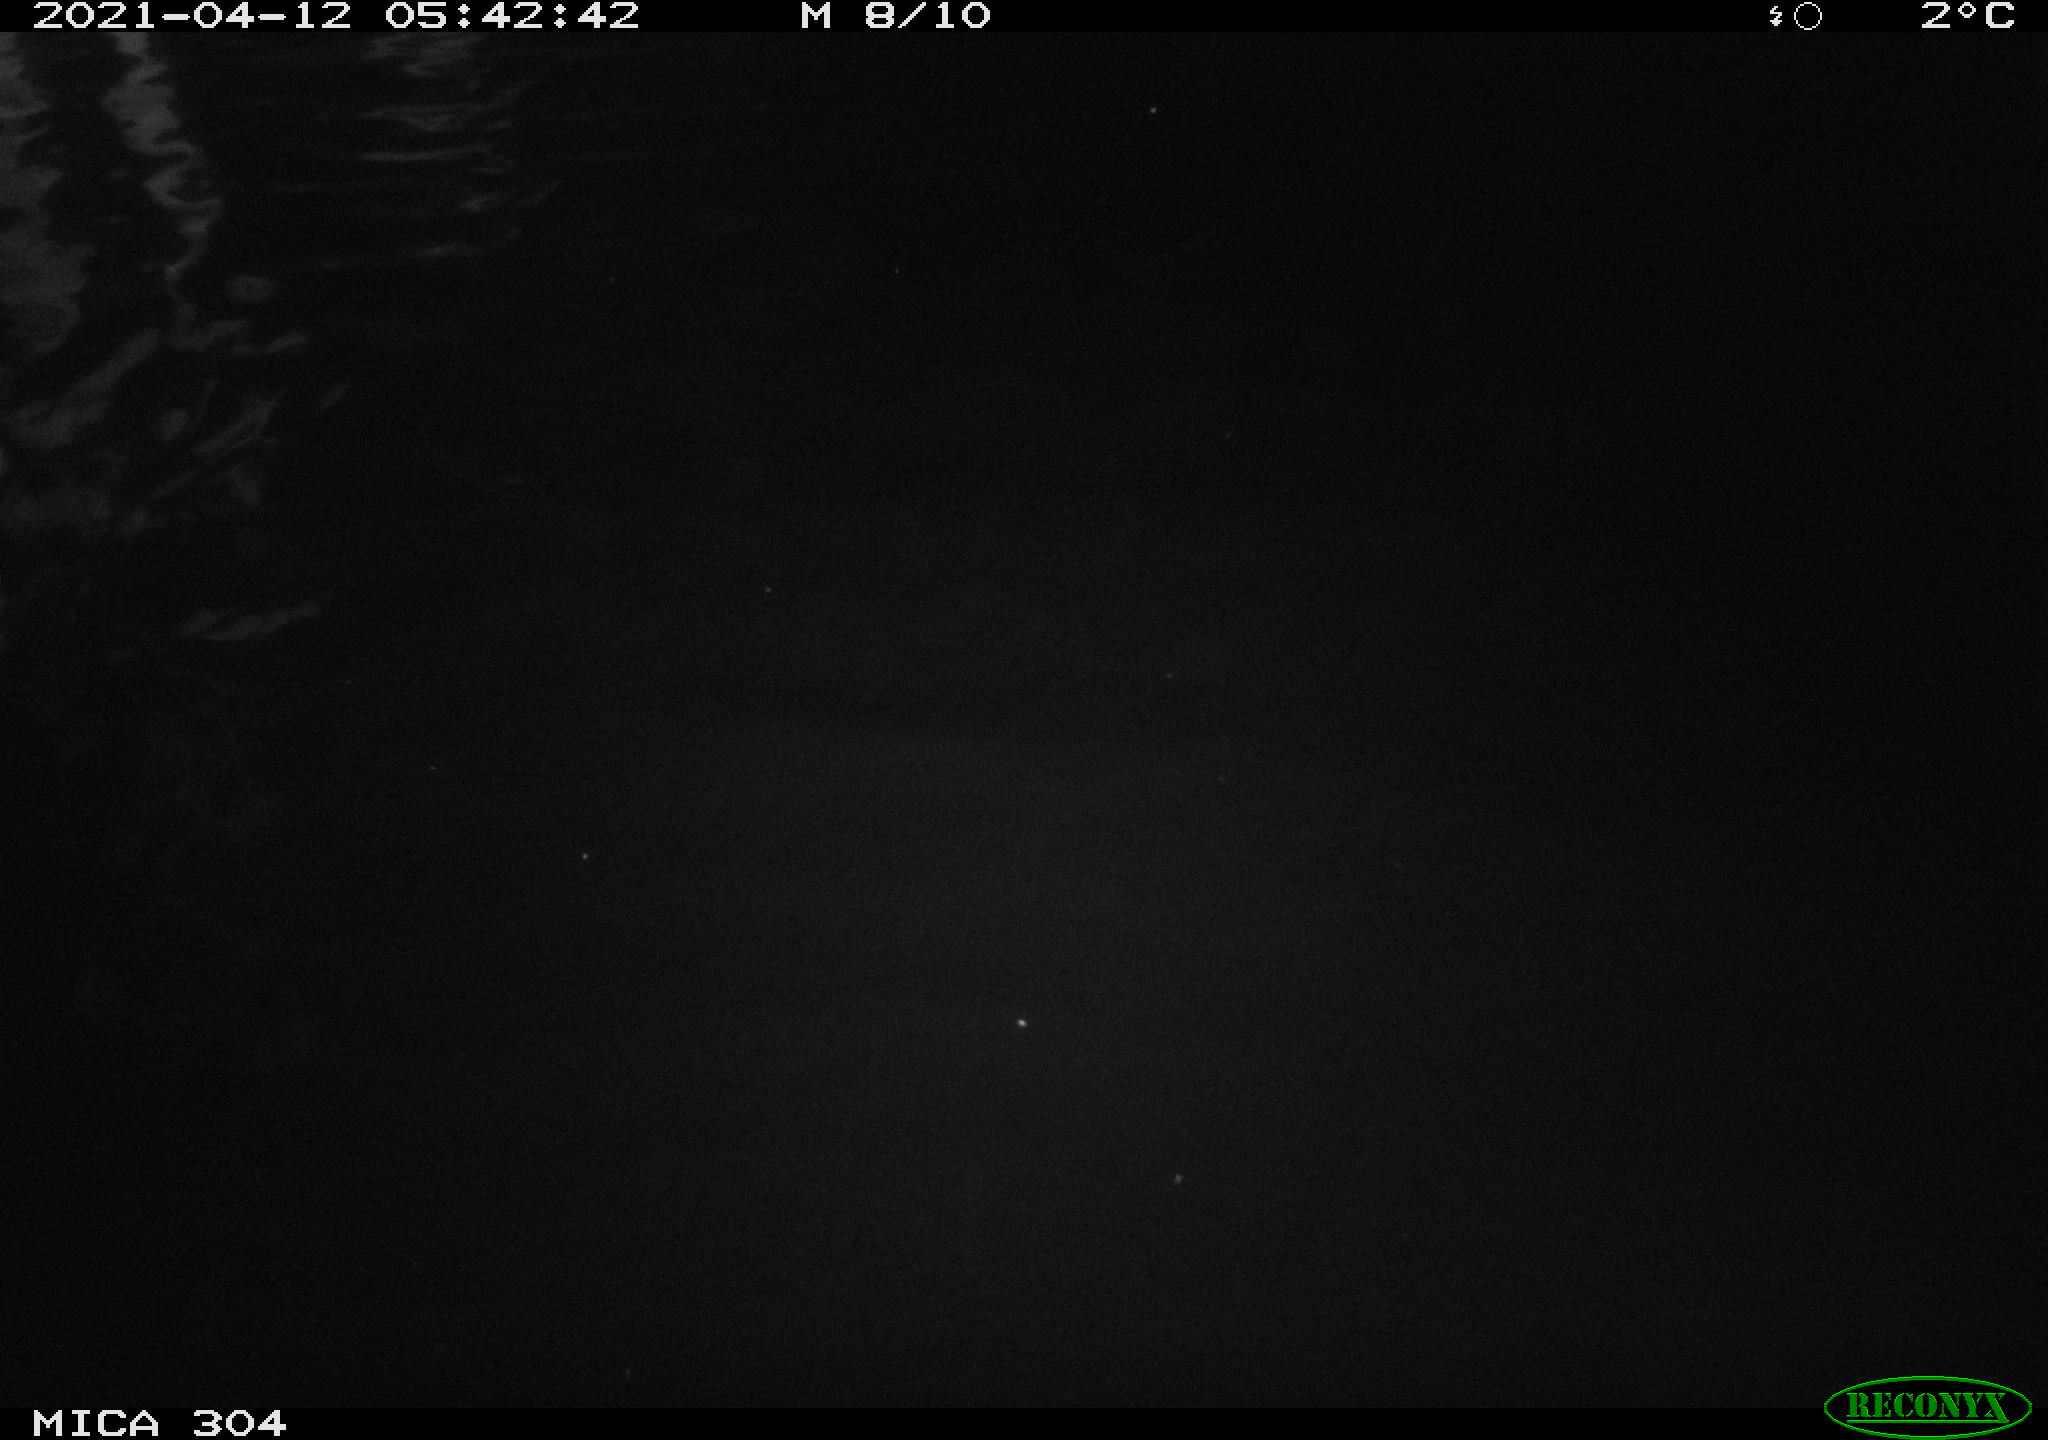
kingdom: Animalia
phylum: Chordata
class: Aves
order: Anseriformes
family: Anatidae
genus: Anas
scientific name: Anas
